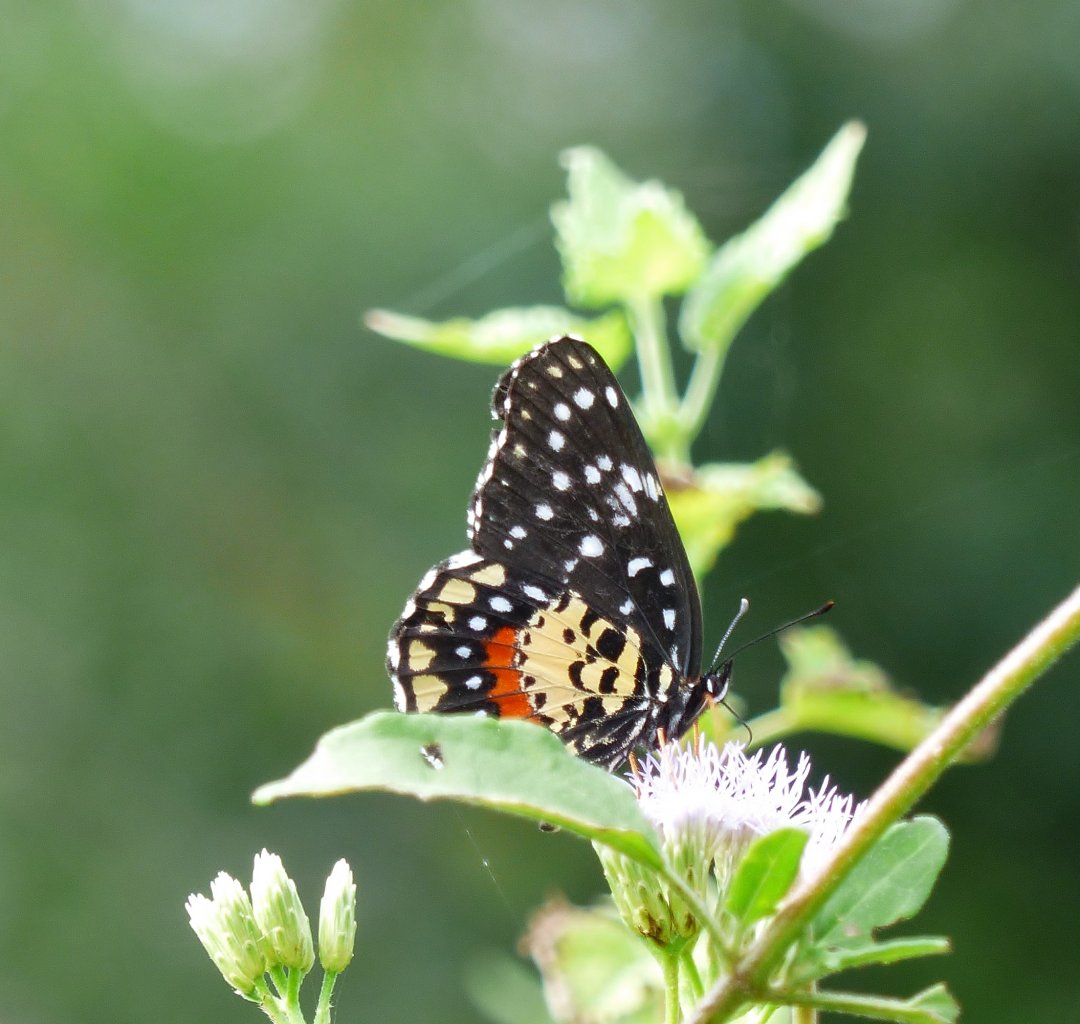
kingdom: Animalia
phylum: Arthropoda
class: Insecta
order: Lepidoptera
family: Nymphalidae
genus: Chlosyne
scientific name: Chlosyne lacinia
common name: Bordered Patch
